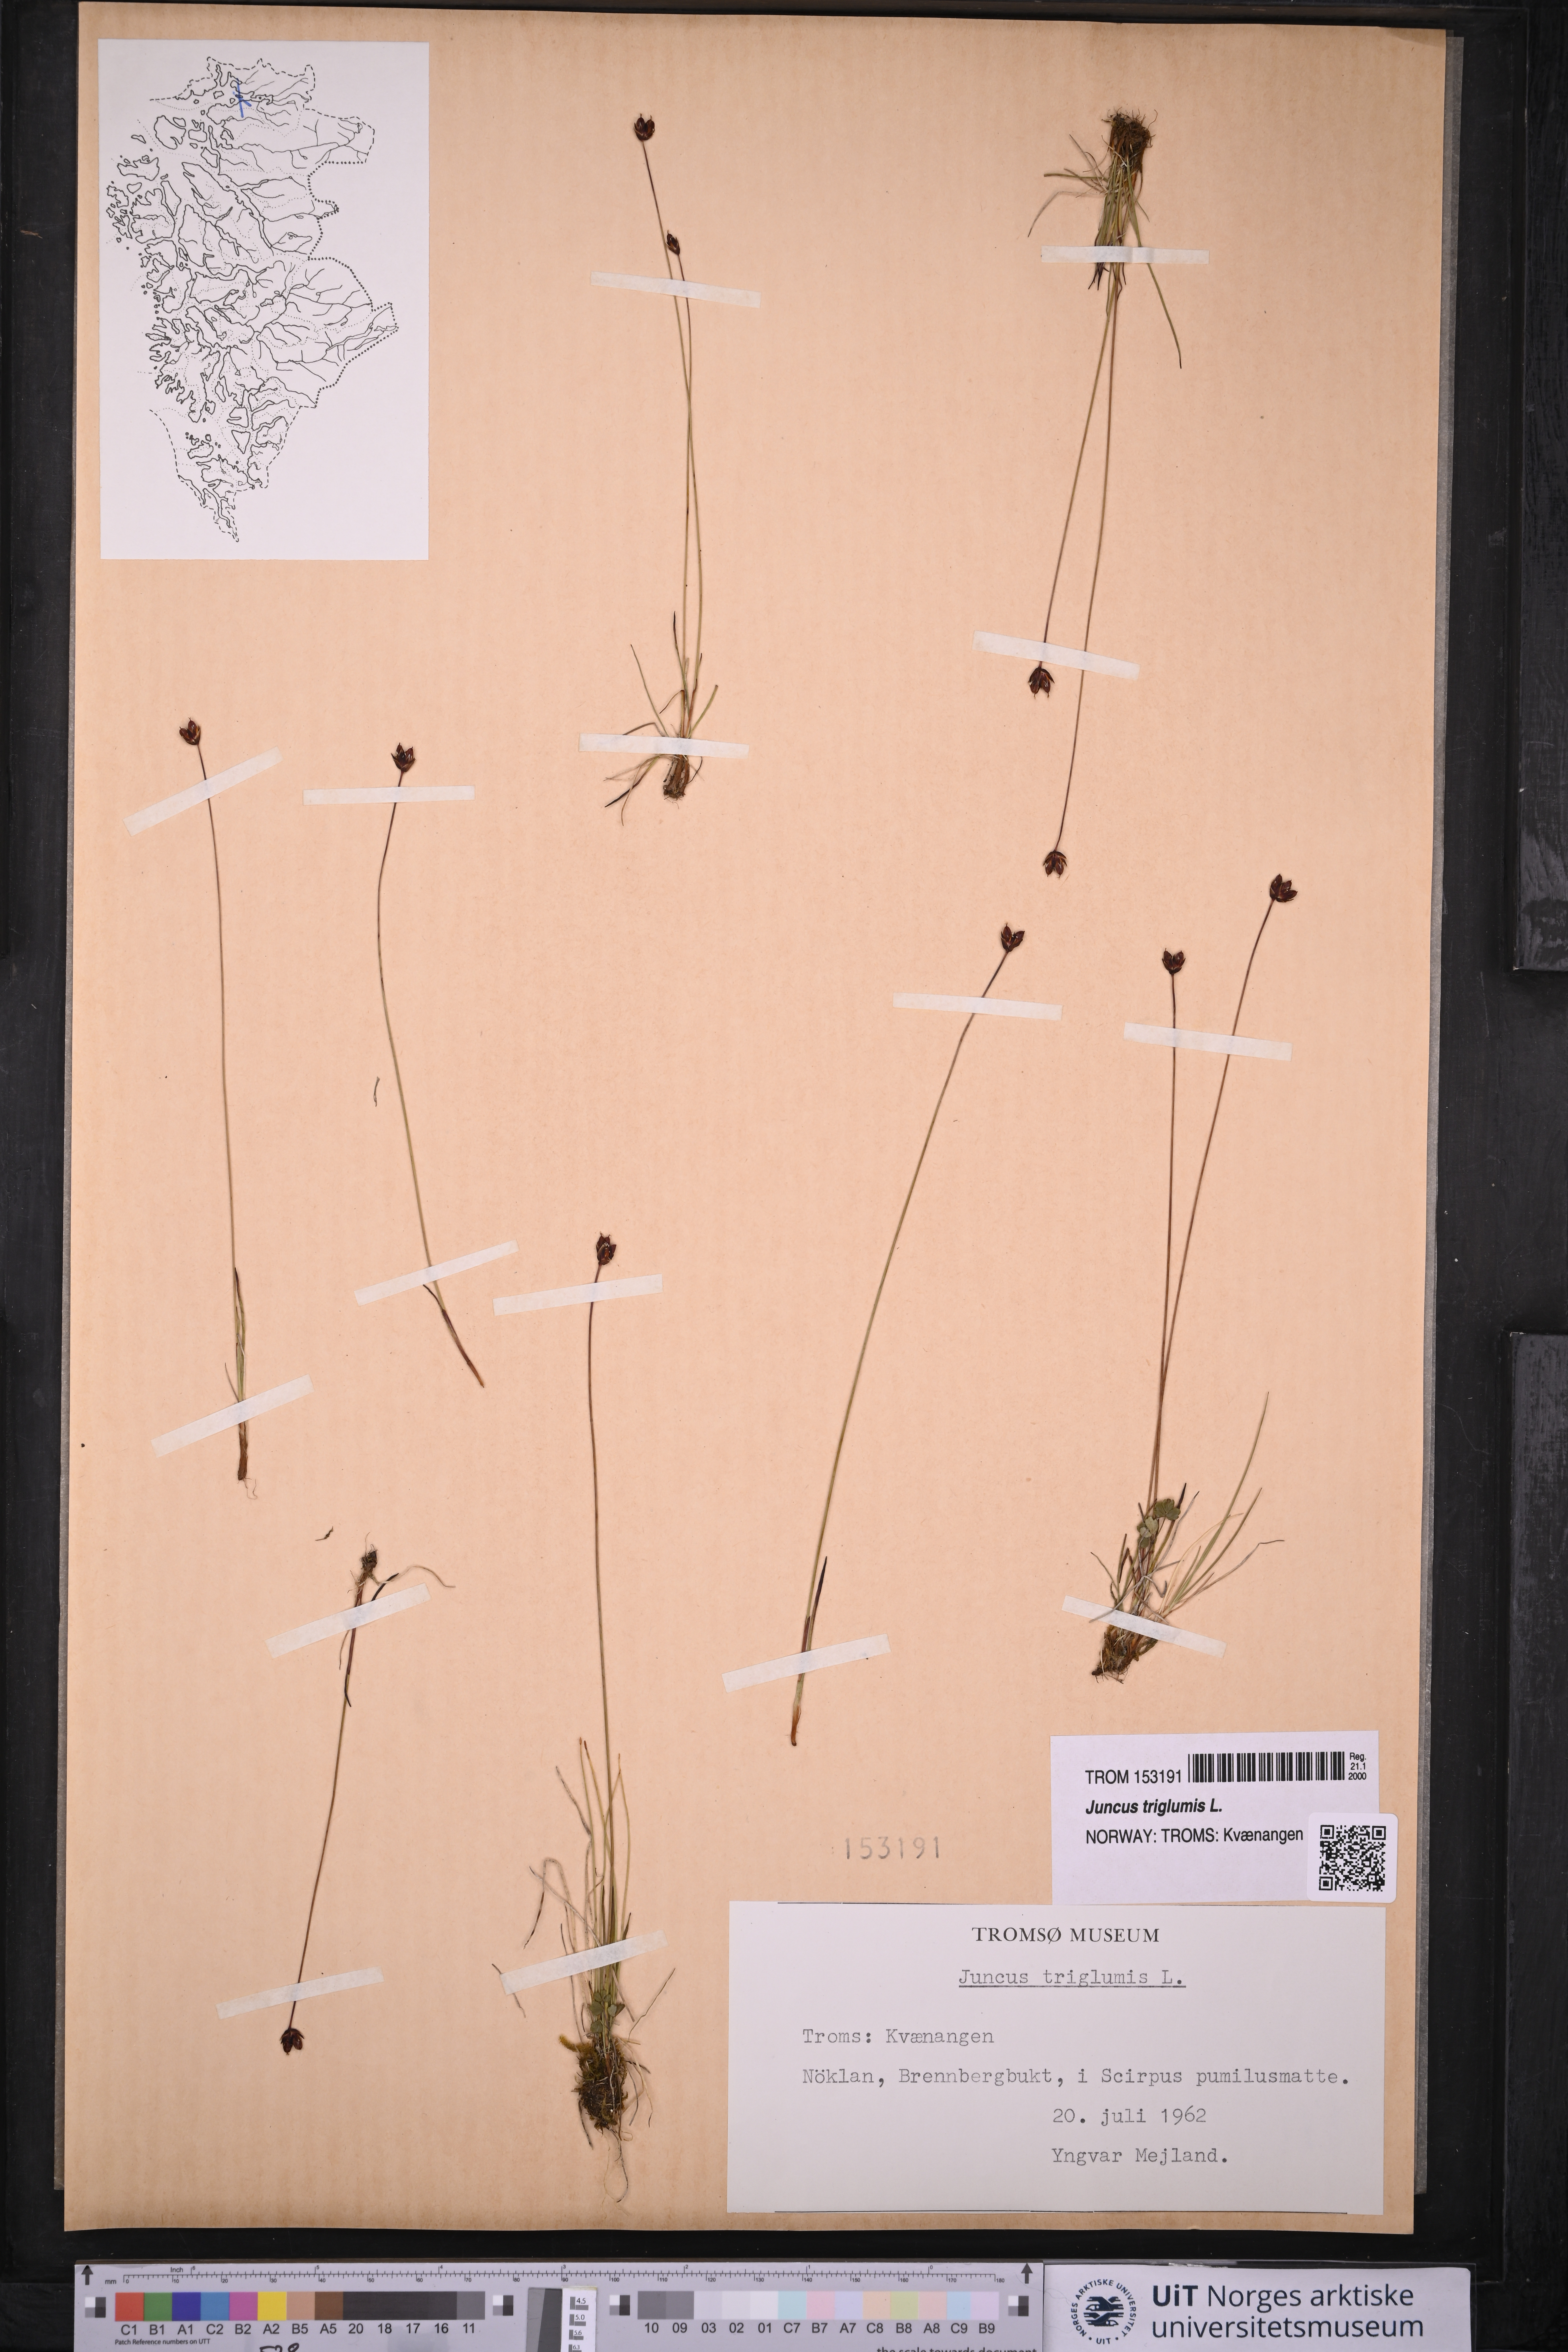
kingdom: Plantae
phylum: Tracheophyta
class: Liliopsida
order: Poales
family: Juncaceae
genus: Juncus
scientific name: Juncus triglumis
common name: Three-flowered rush
